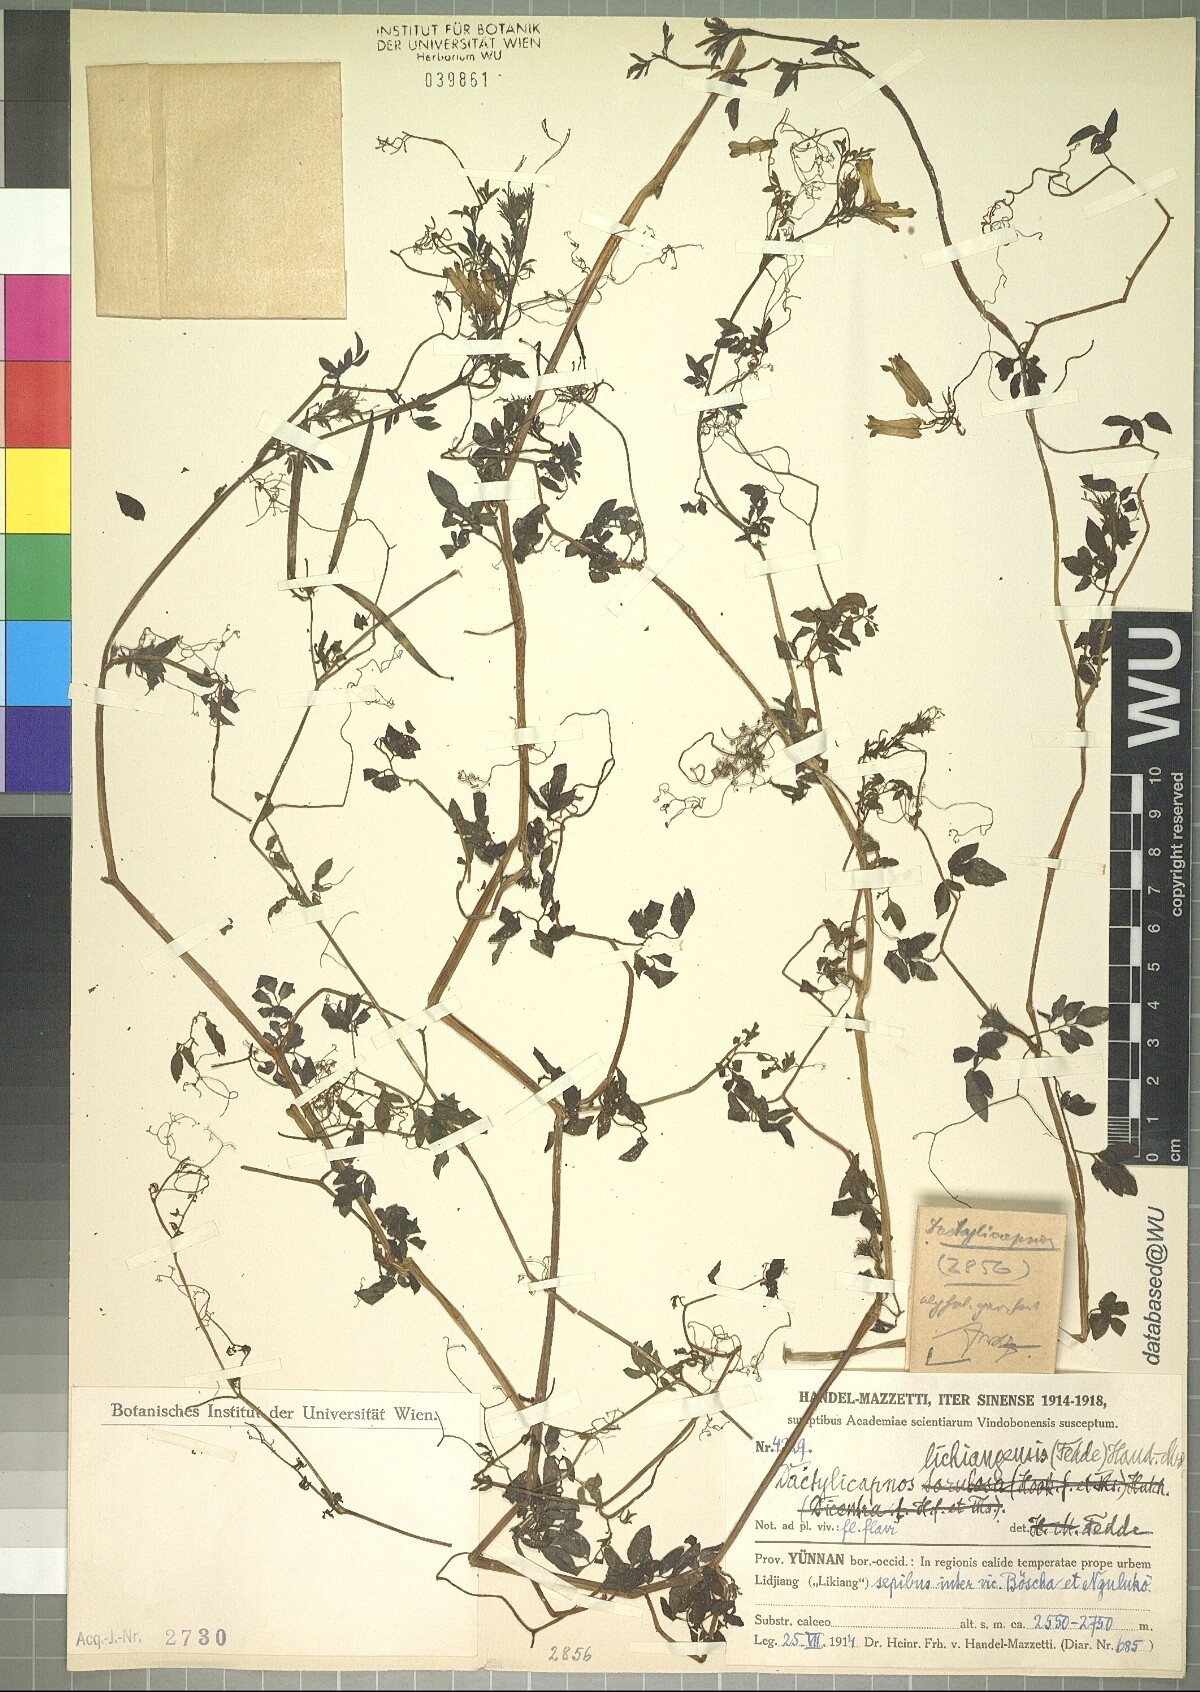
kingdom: Plantae
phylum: Tracheophyta
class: Magnoliopsida
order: Ranunculales
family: Papaveraceae
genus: Dactylicapnos
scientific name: Dactylicapnos lichiangensis
